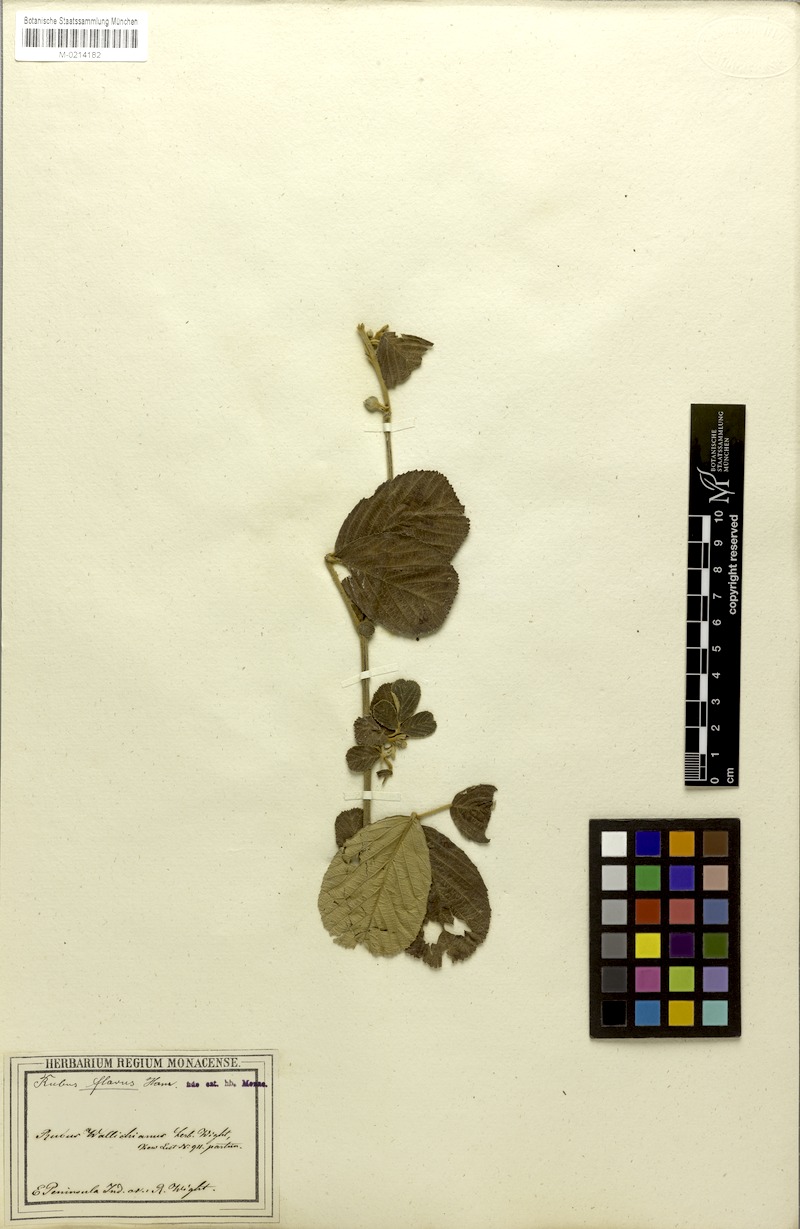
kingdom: Plantae
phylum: Tracheophyta
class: Magnoliopsida
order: Rosales
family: Rosaceae
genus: Rubus
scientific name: Rubus ellipticus
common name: Cheeseberry
